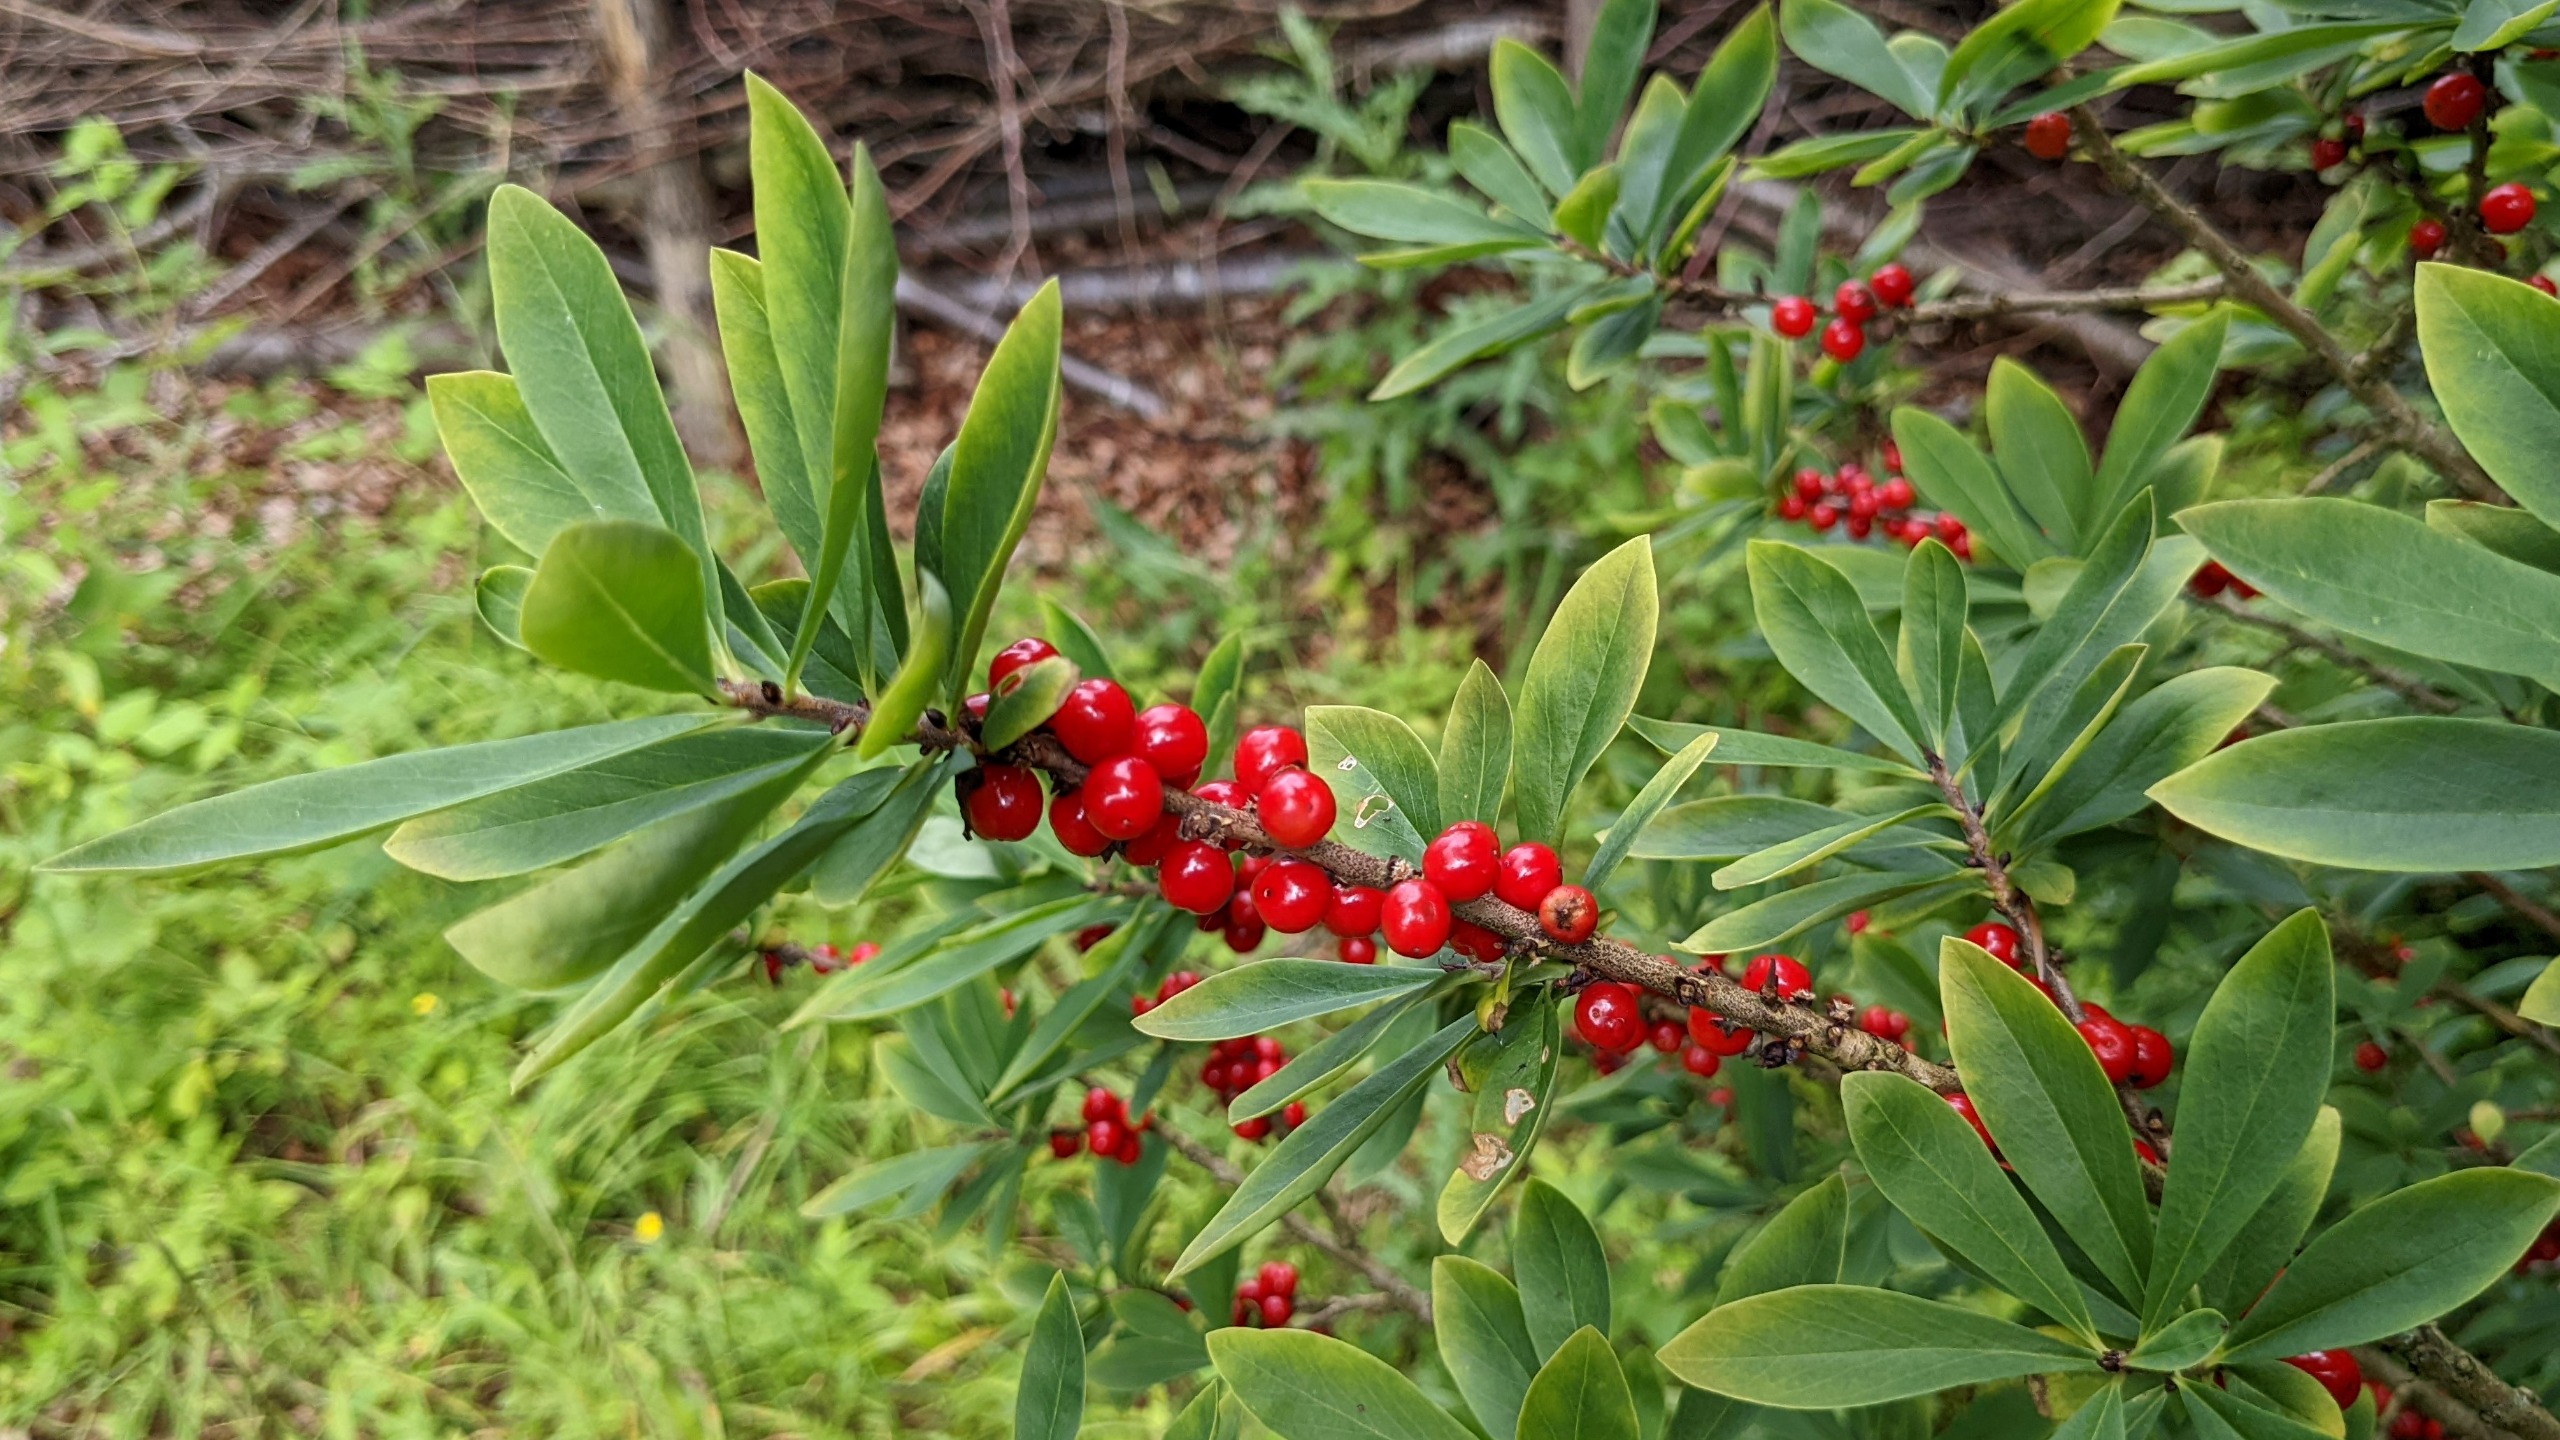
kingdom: Plantae
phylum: Tracheophyta
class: Magnoliopsida
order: Malvales
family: Thymelaeaceae
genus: Daphne
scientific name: Daphne mezereum
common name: Pebertræ
